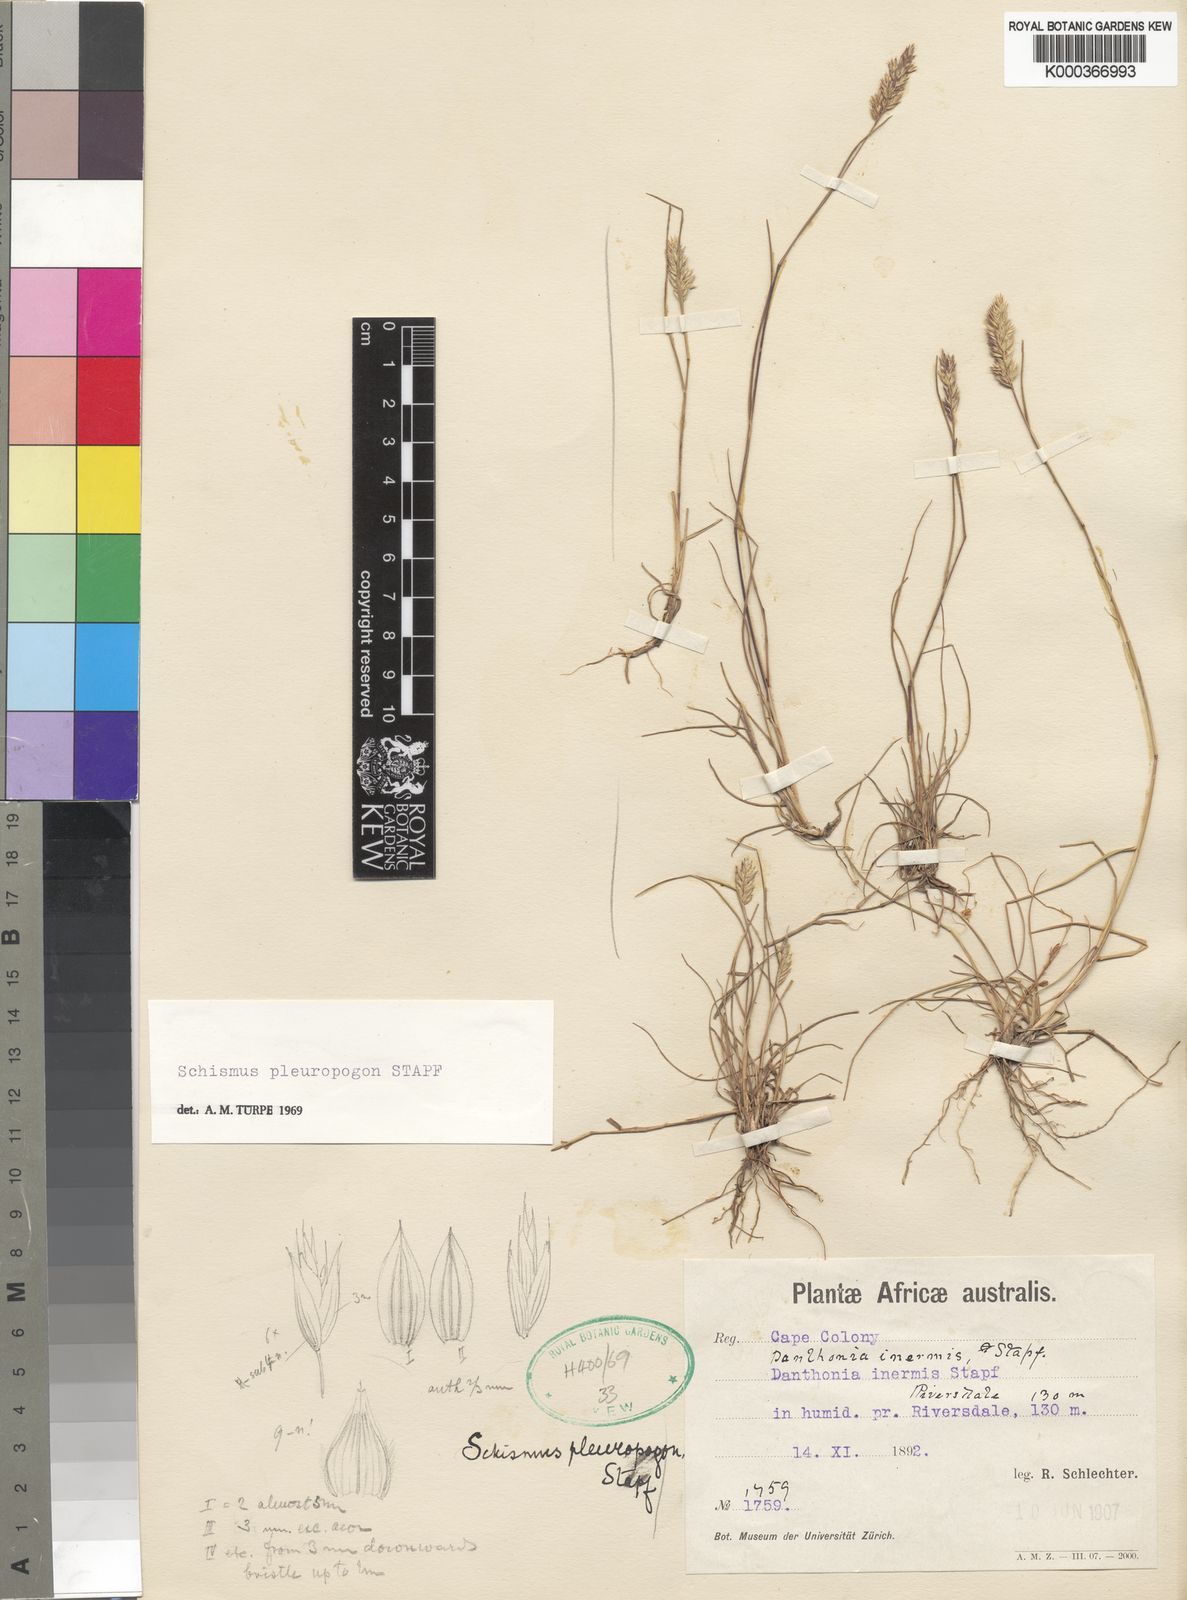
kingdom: Plantae
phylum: Tracheophyta
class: Liliopsida
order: Poales
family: Poaceae
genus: Tribolium
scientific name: Tribolium pleuropogon
